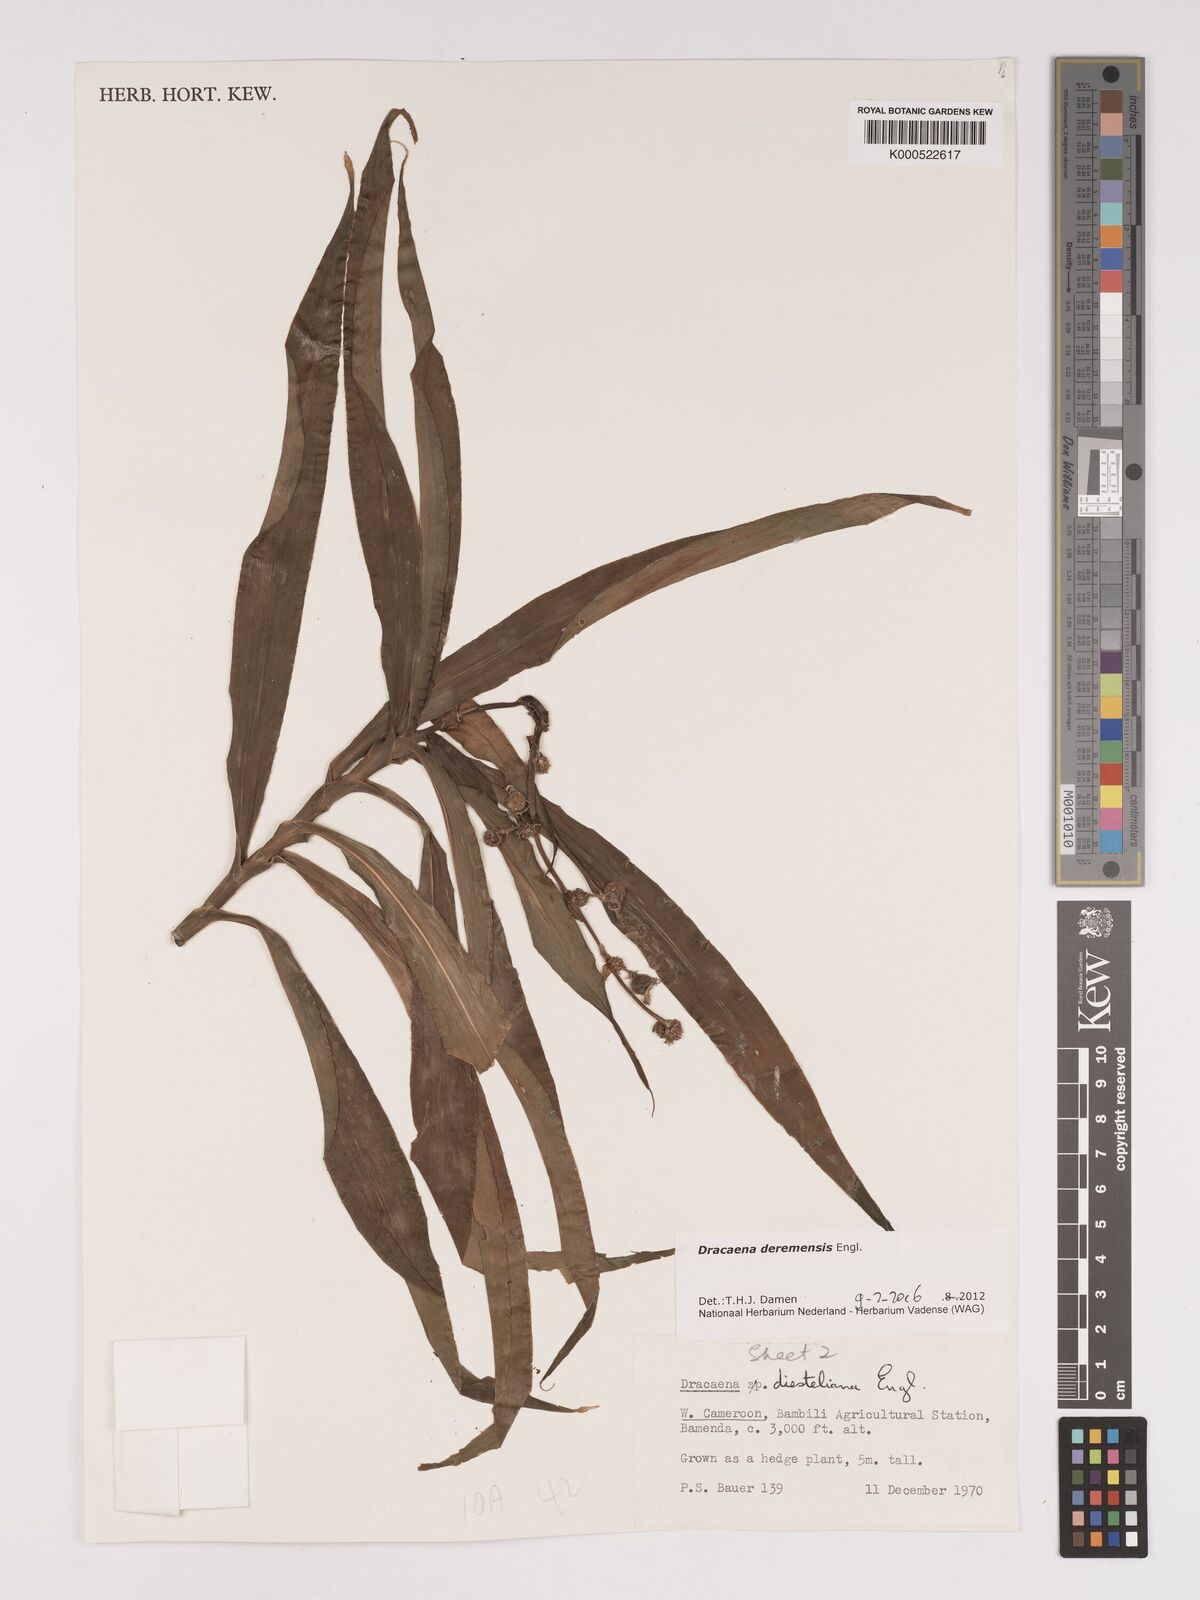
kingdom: Plantae
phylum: Tracheophyta
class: Liliopsida
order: Asparagales
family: Asparagaceae
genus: Dracaena
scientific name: Dracaena fragrans
